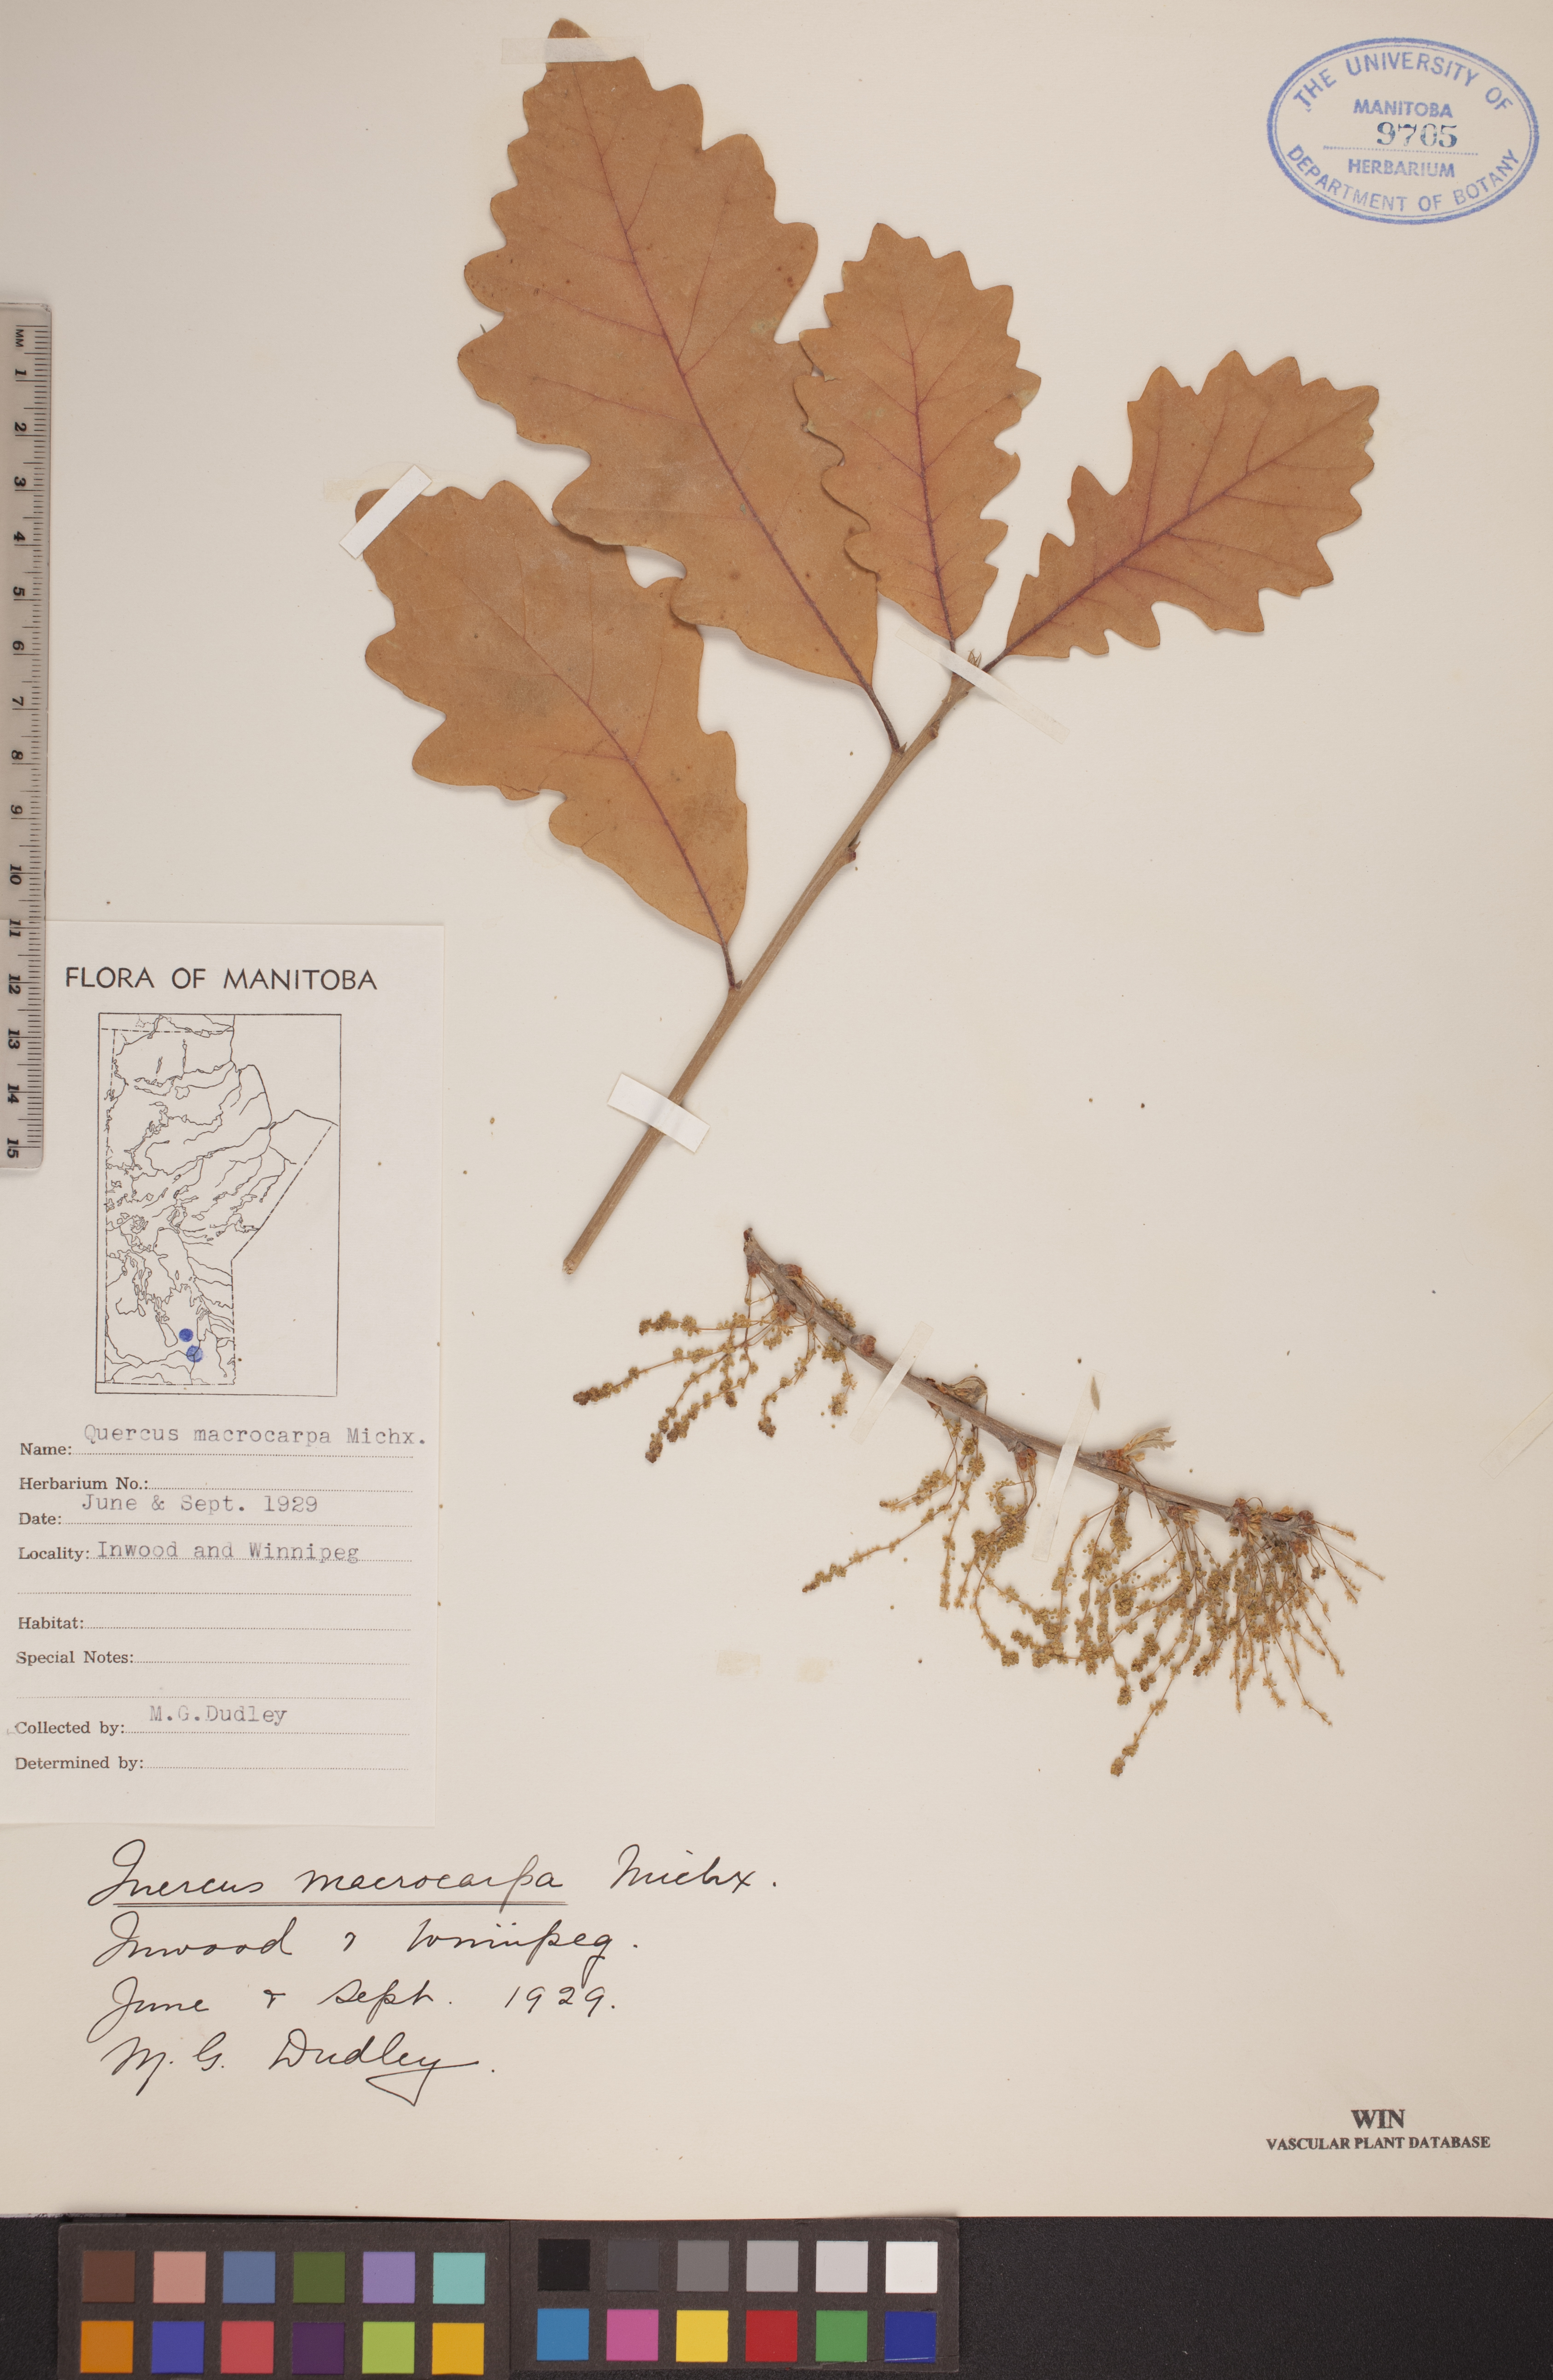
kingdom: Plantae
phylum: Tracheophyta
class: Magnoliopsida
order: Fagales
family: Fagaceae
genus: Quercus
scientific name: Quercus macrocarpa
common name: Bur oak
